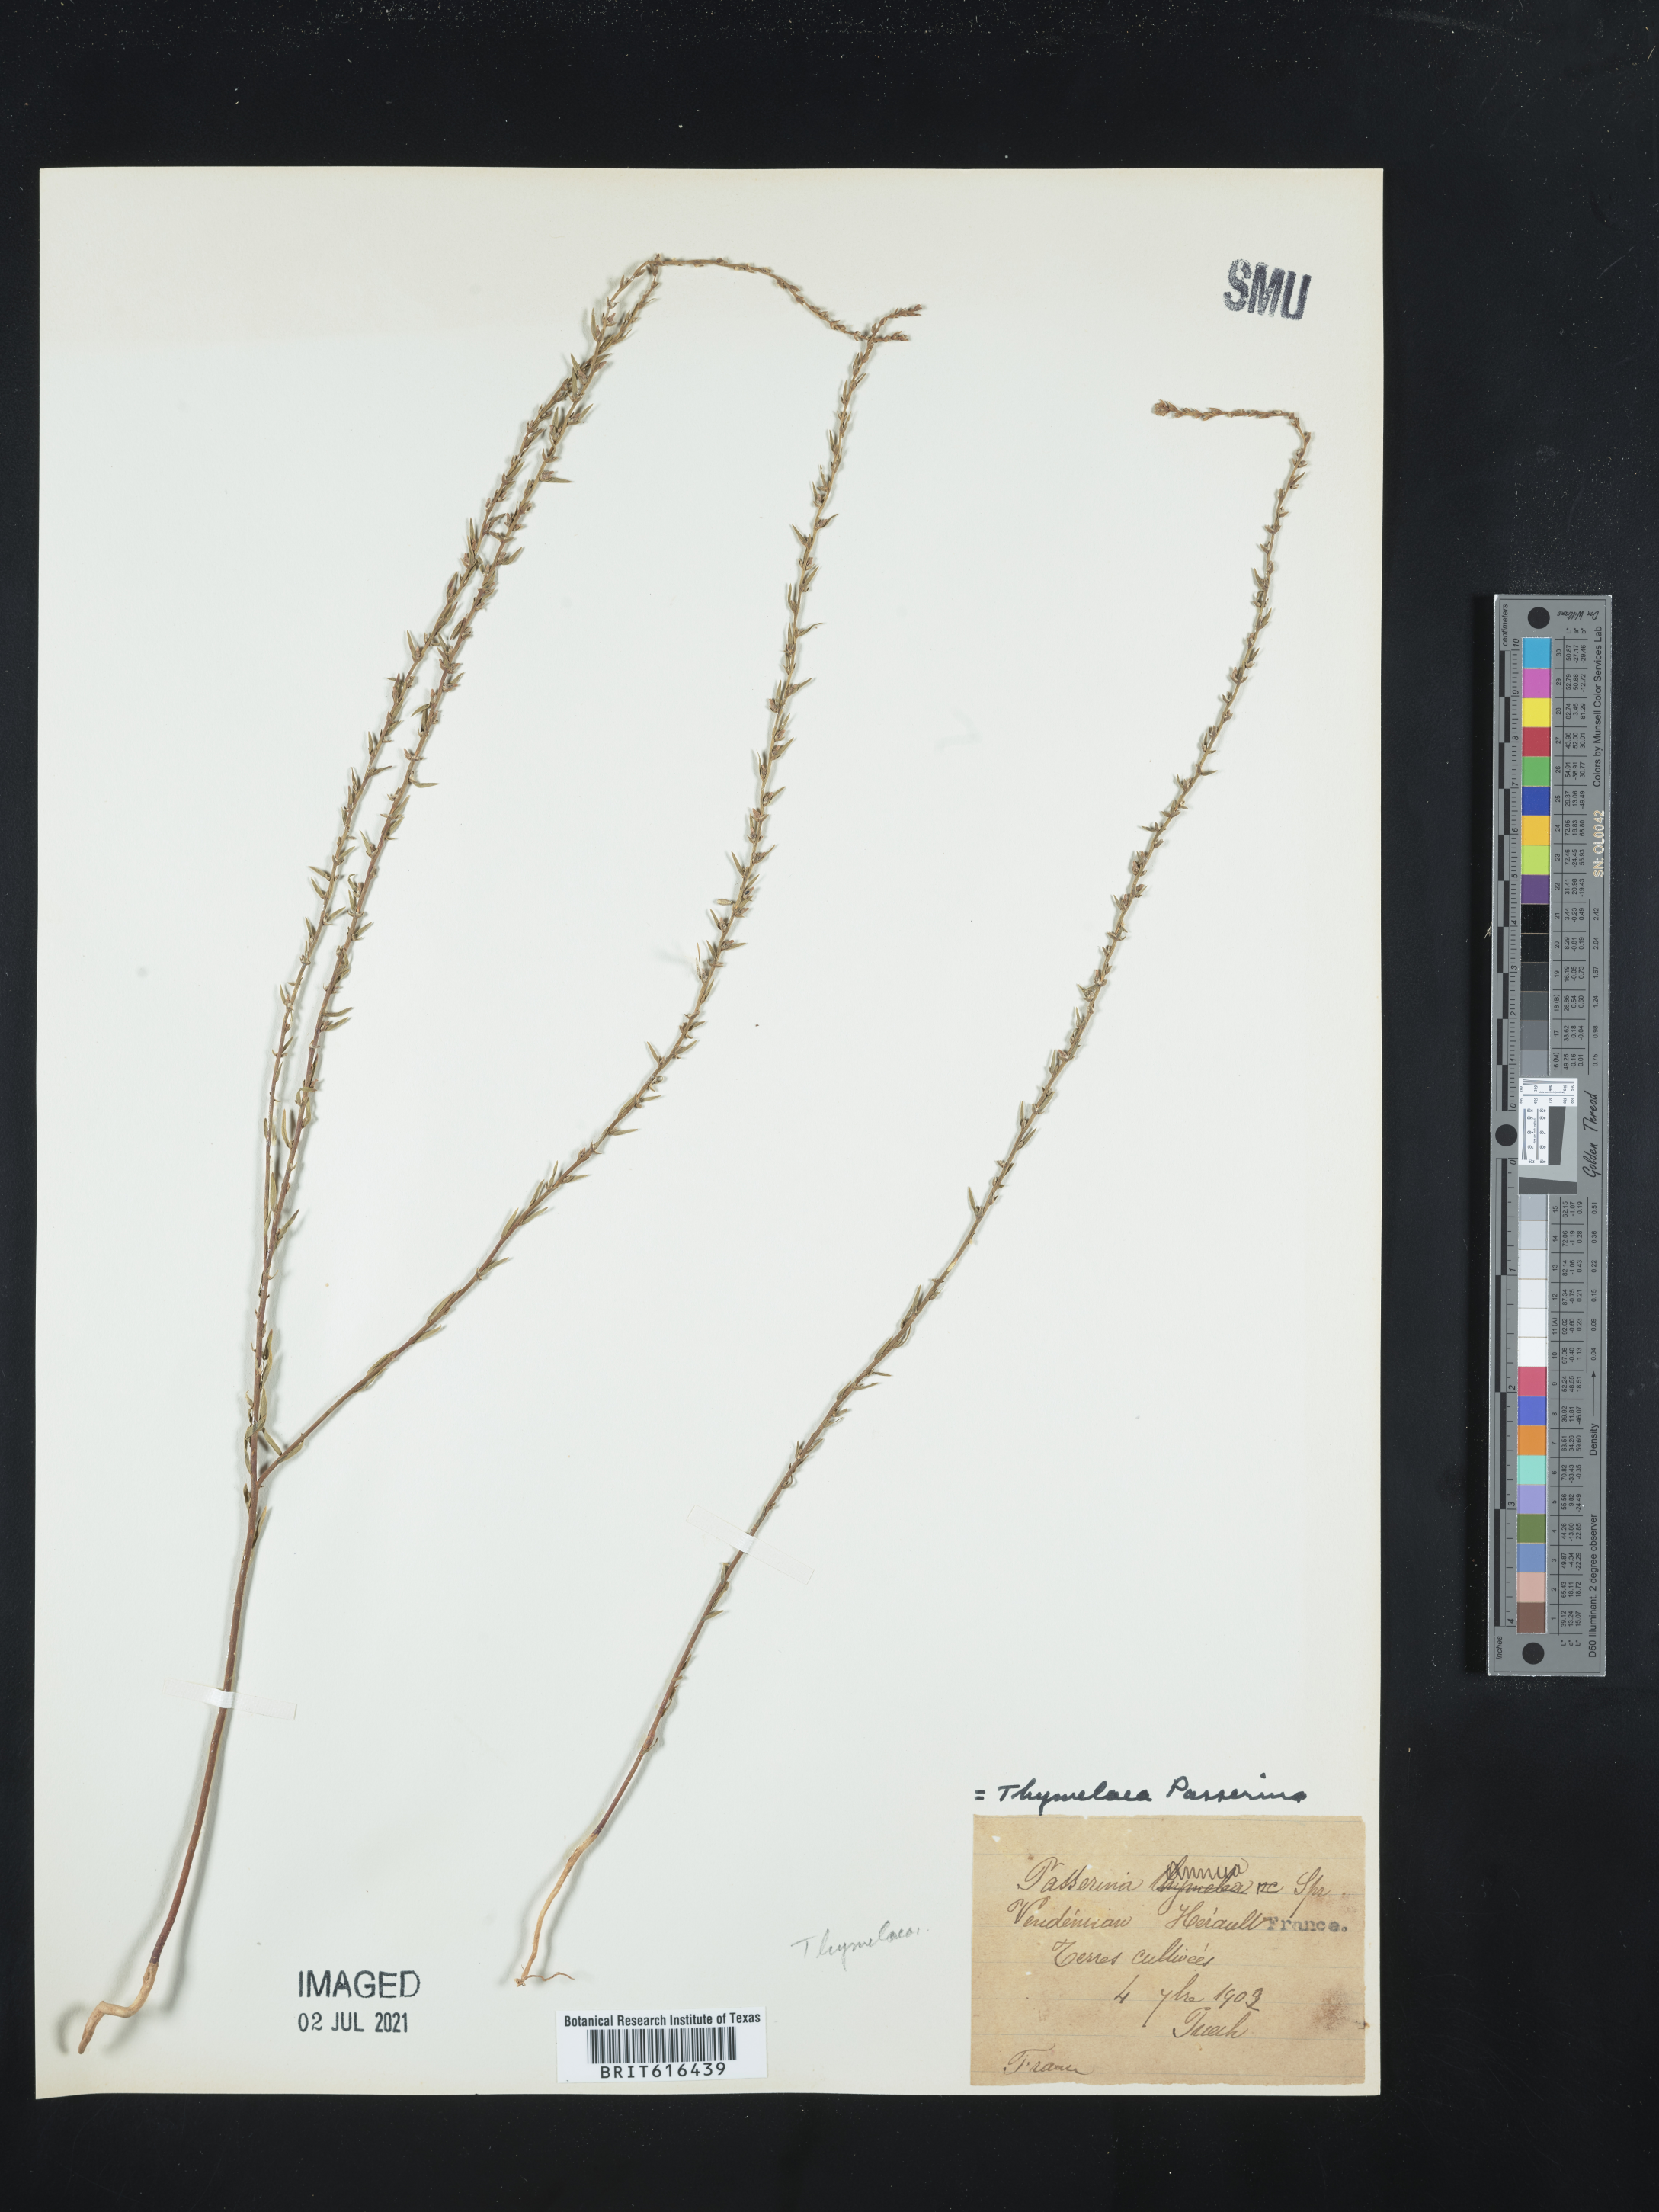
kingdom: Plantae
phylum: Tracheophyta
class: Magnoliopsida
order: Malvales
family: Thymelaeaceae
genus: Thymelaea
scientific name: Thymelaea passerina
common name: Annual thymelaea
